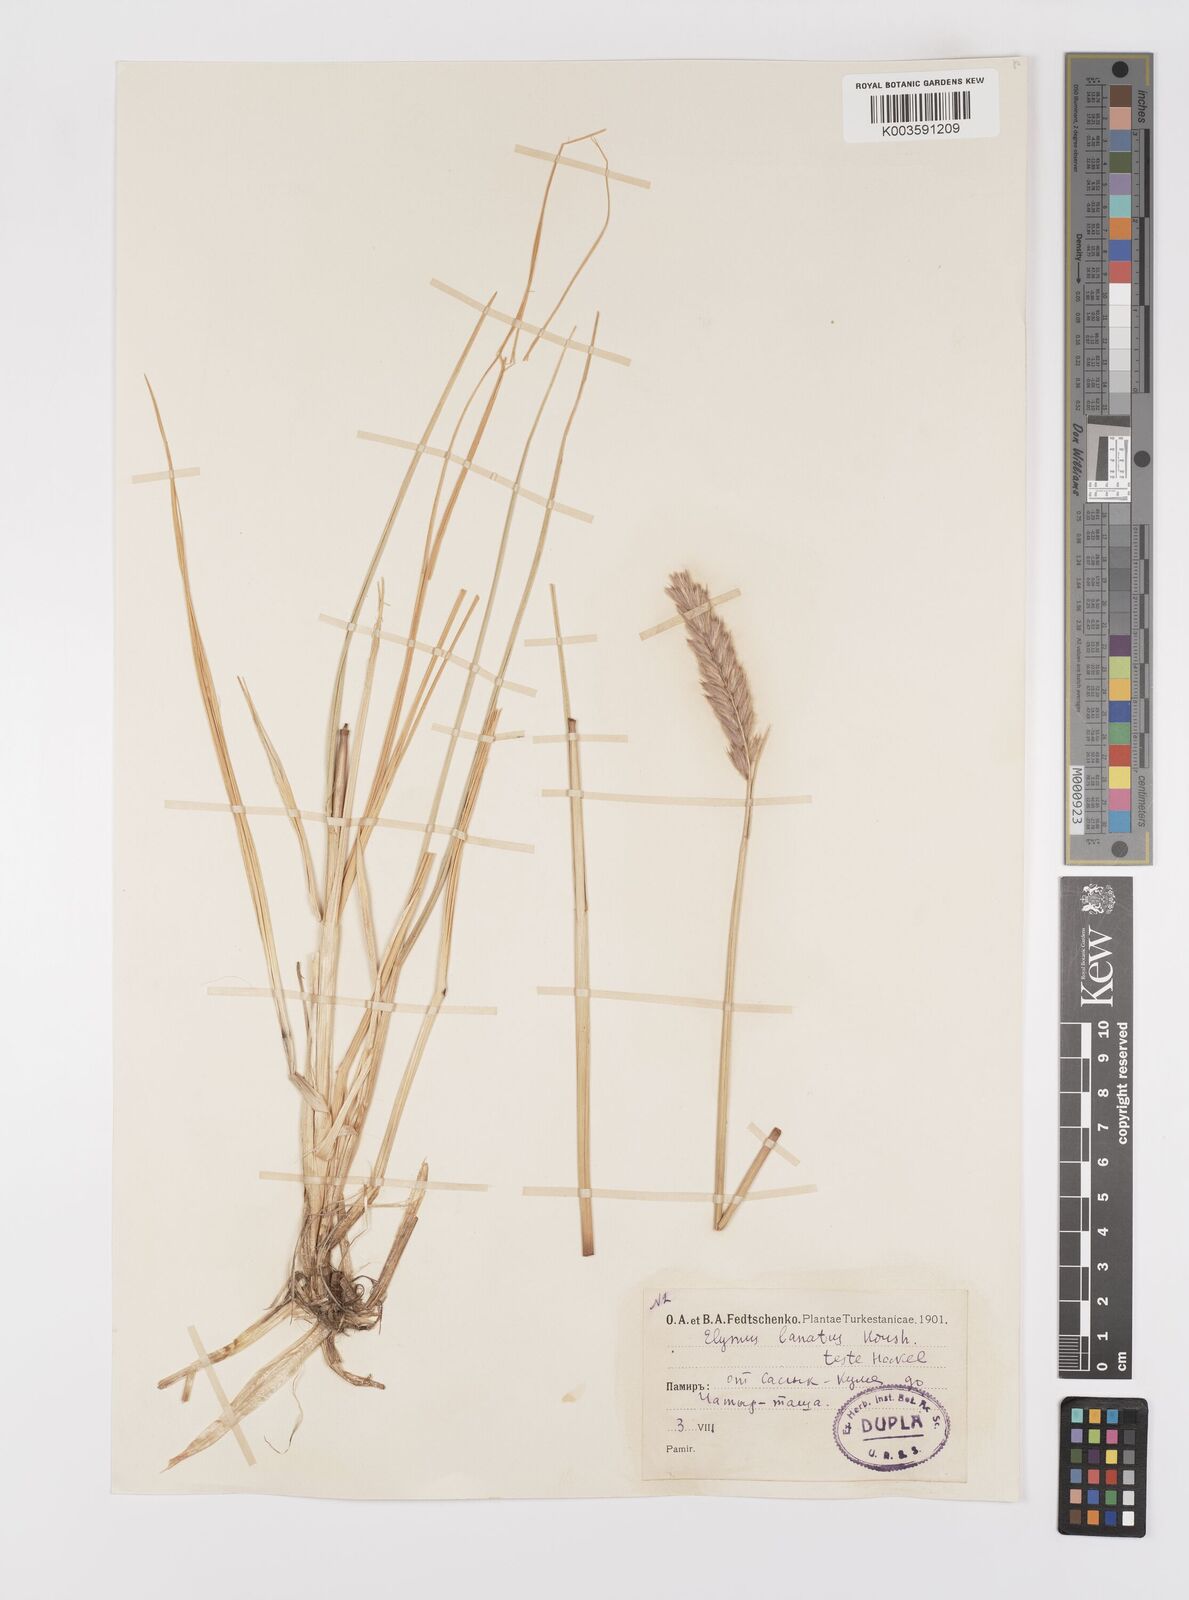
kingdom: Plantae
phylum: Tracheophyta
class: Liliopsida
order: Poales
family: Poaceae
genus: Leymus
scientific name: Leymus lanatus
